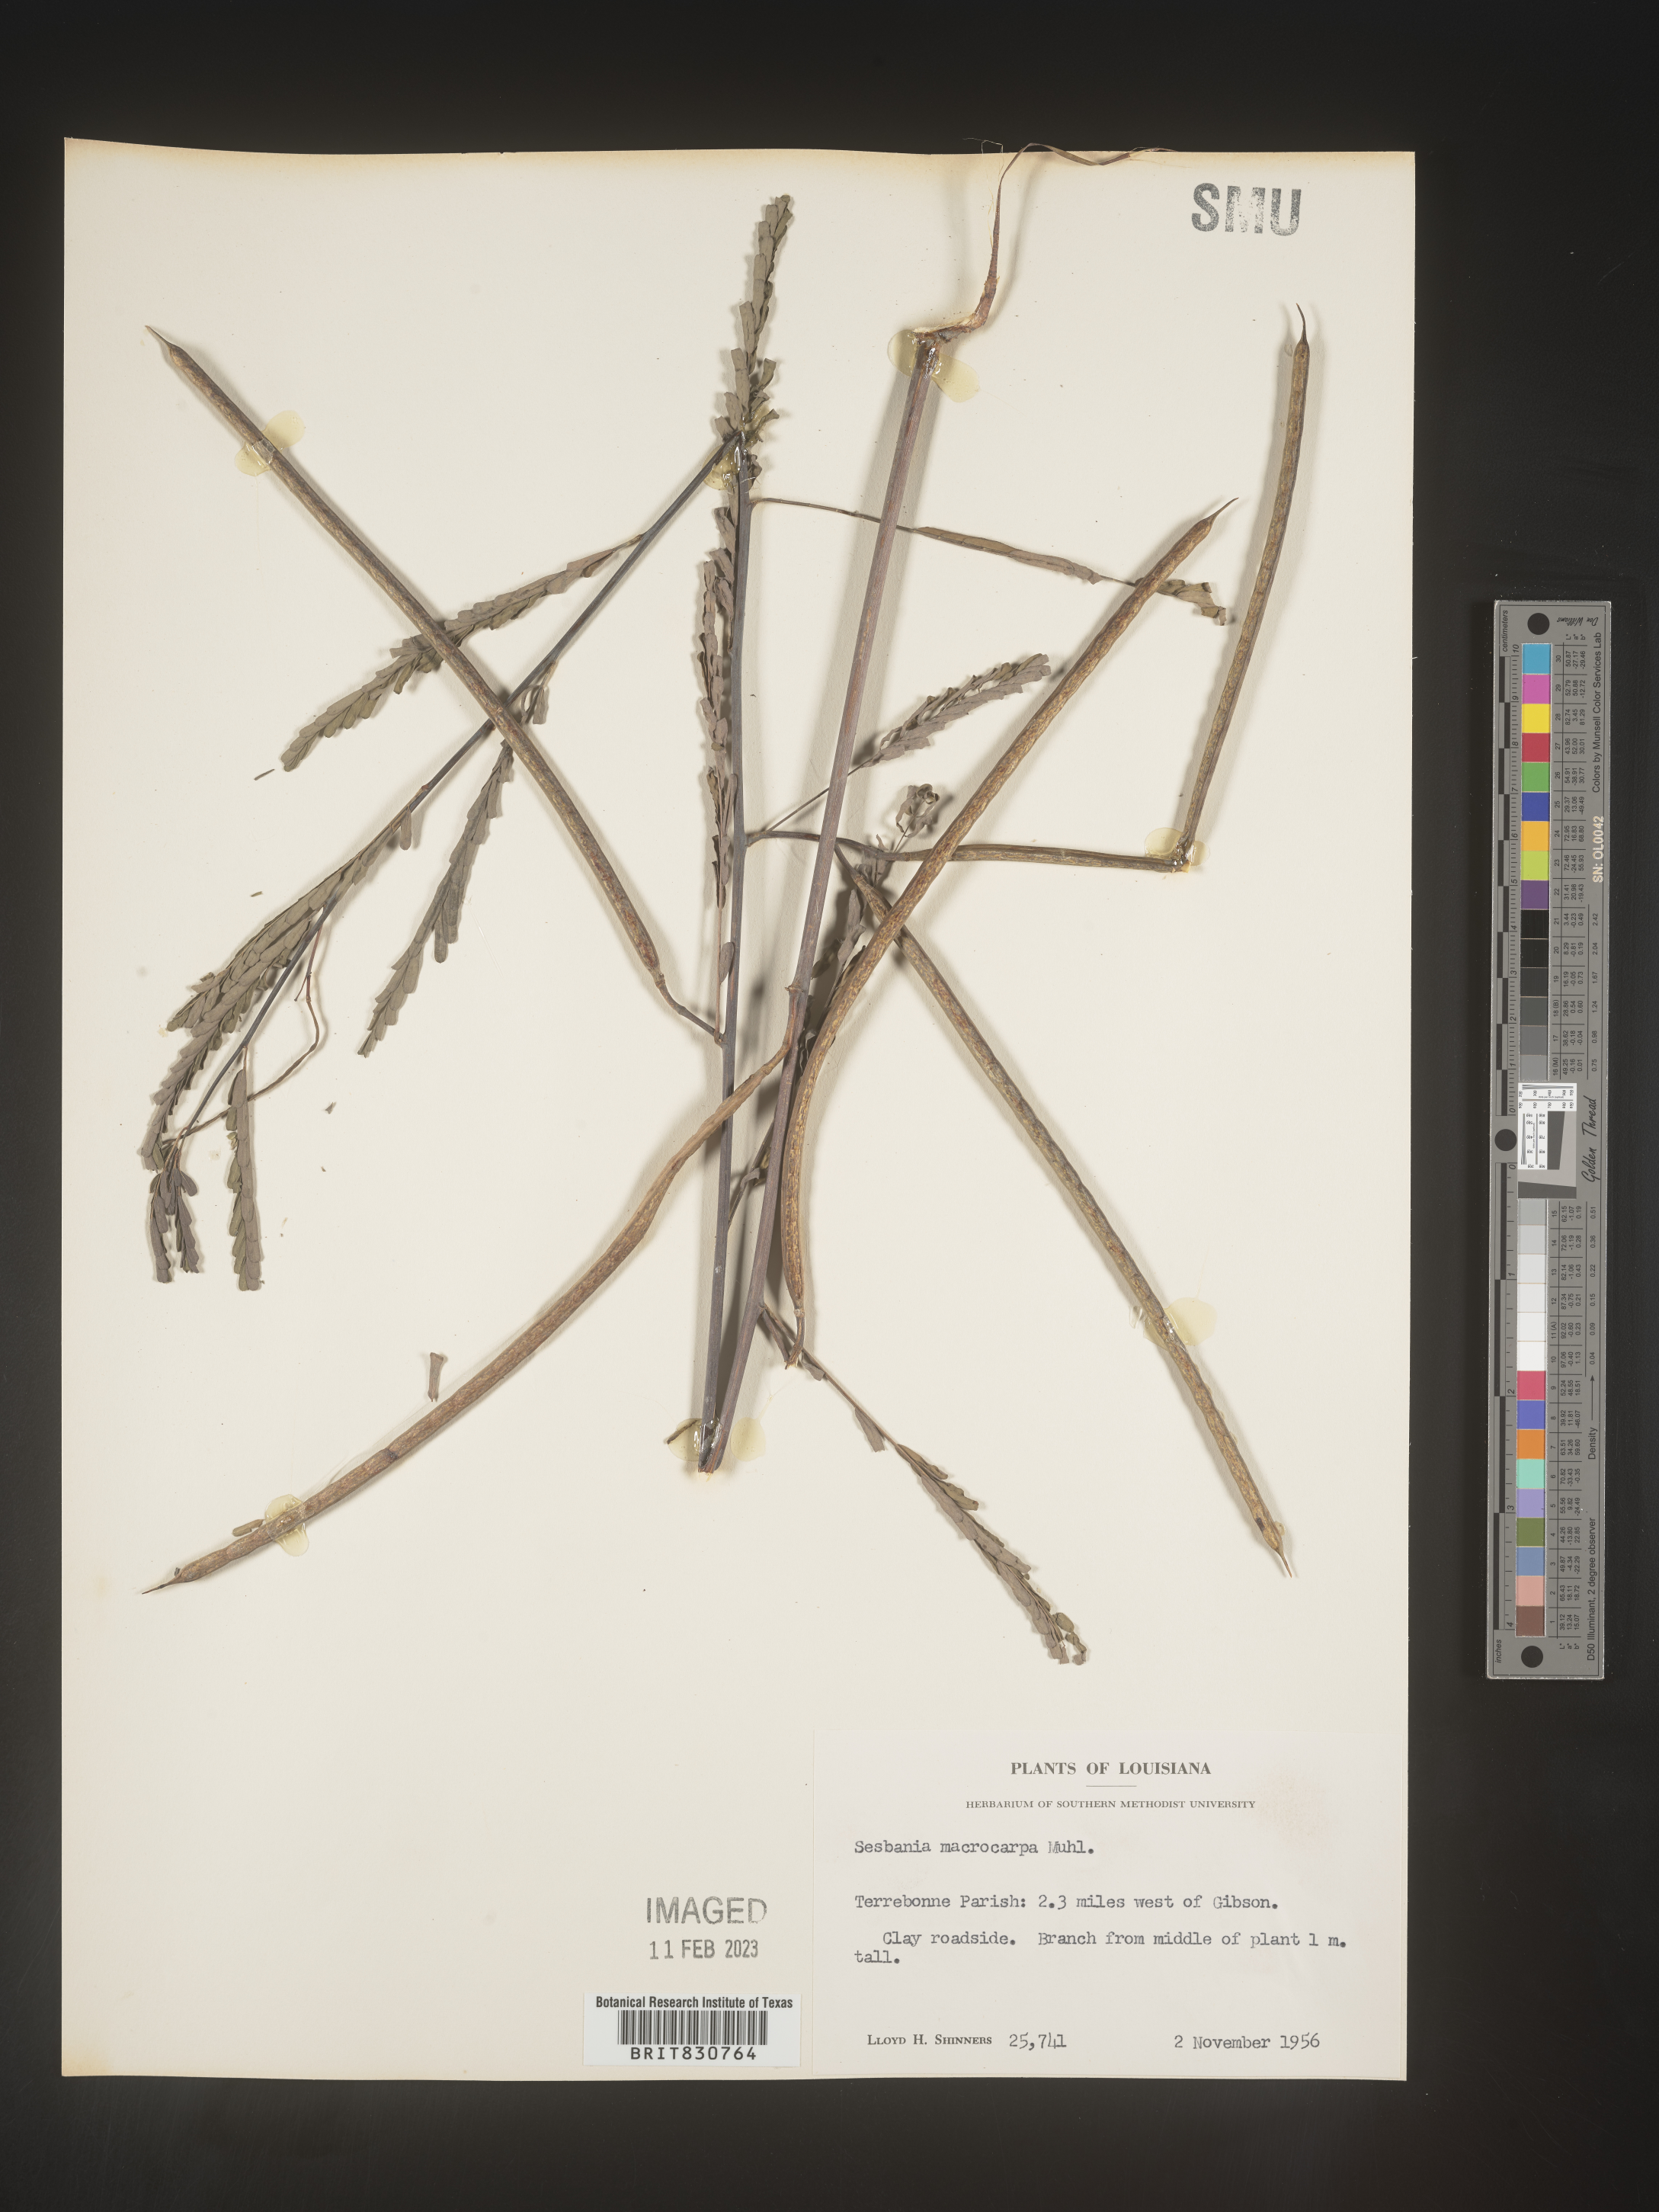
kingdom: Plantae
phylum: Tracheophyta
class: Magnoliopsida
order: Fabales
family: Fabaceae
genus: Sesbania
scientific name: Sesbania vesicaria
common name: Bagpod
